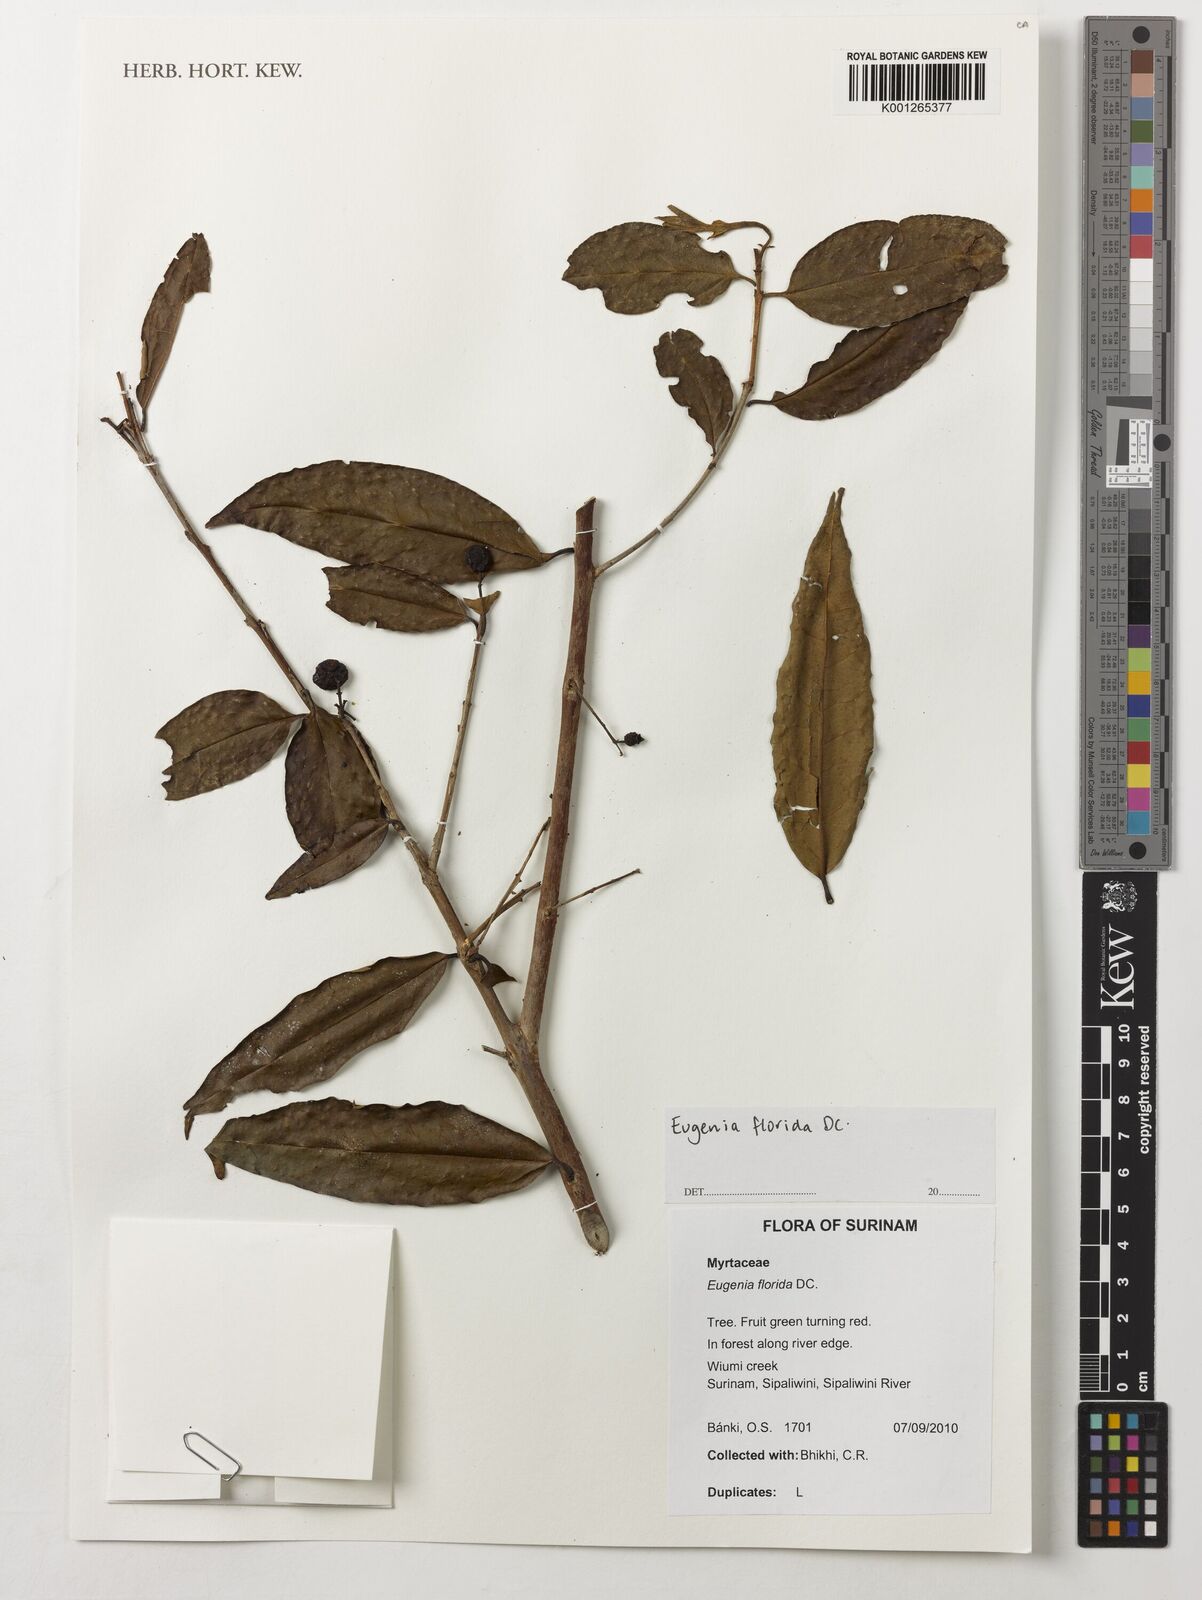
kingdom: Plantae
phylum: Tracheophyta
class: Magnoliopsida
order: Myrtales
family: Myrtaceae
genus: Eugenia
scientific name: Eugenia florida
